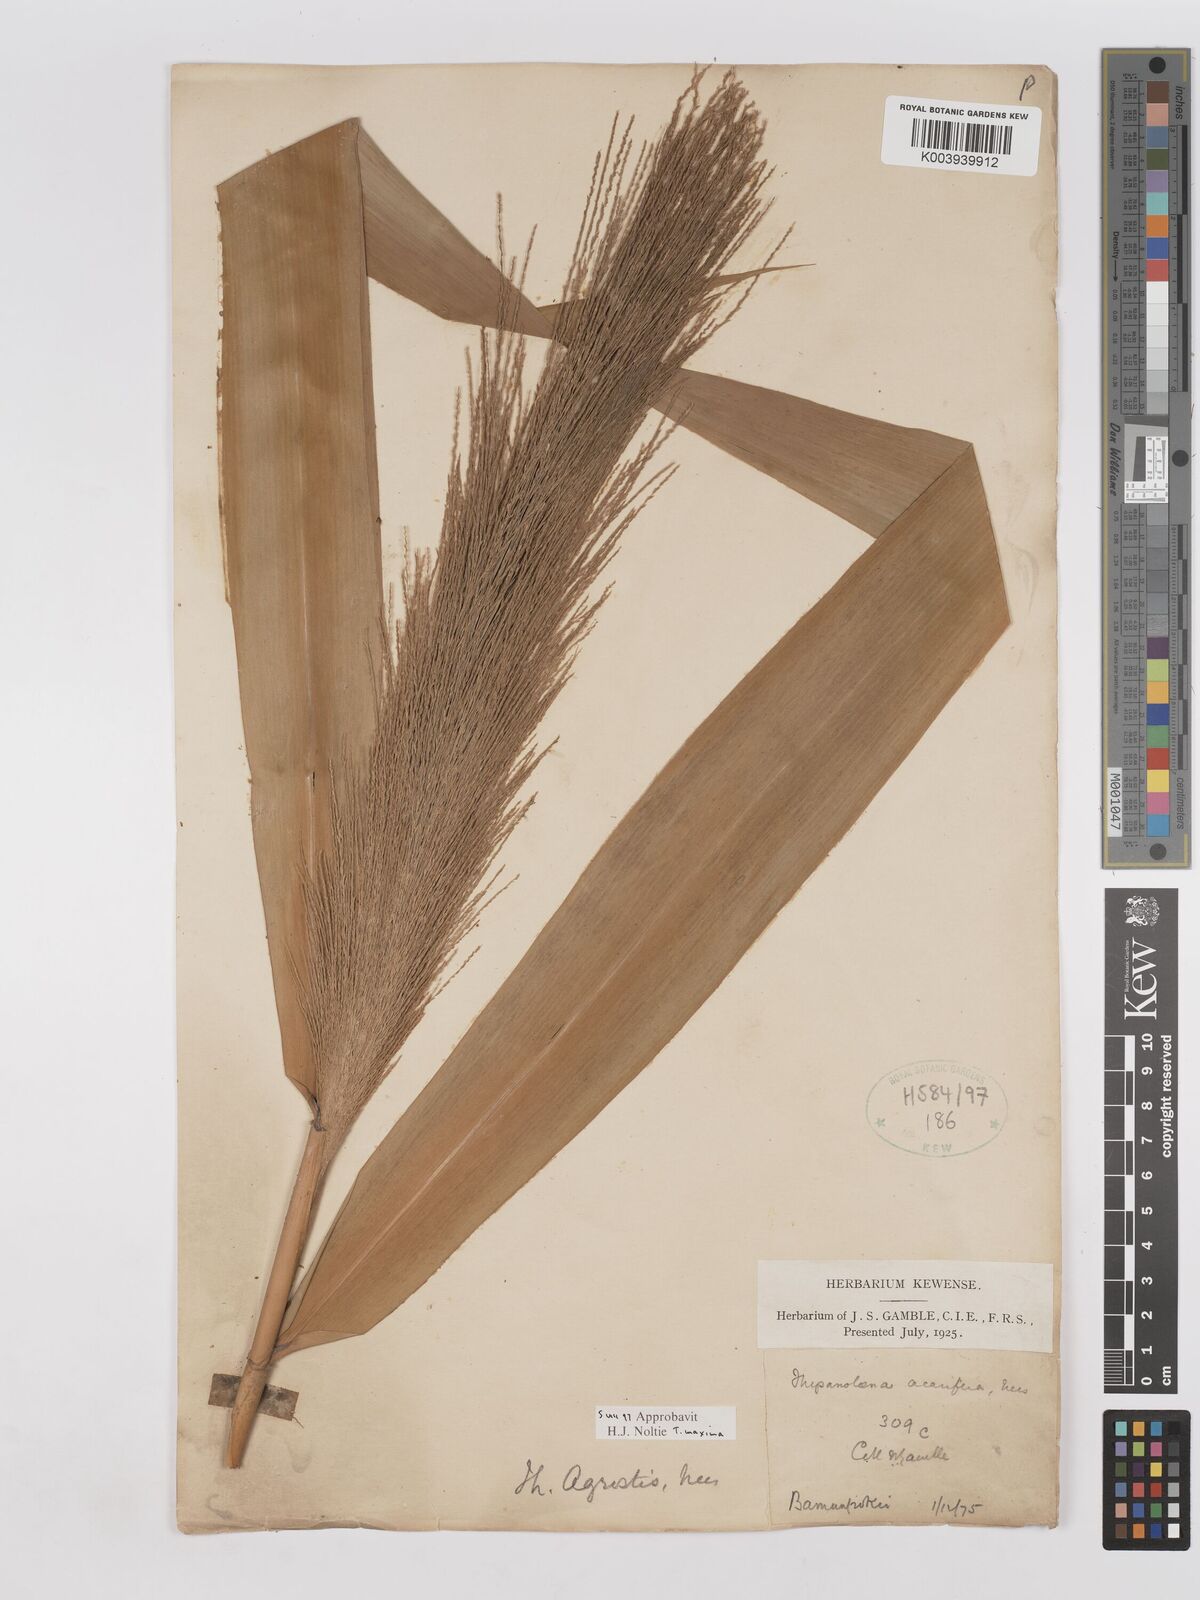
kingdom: Plantae
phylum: Tracheophyta
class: Liliopsida
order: Poales
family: Poaceae
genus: Thysanolaena
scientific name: Thysanolaena latifolia
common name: Tiger grass
